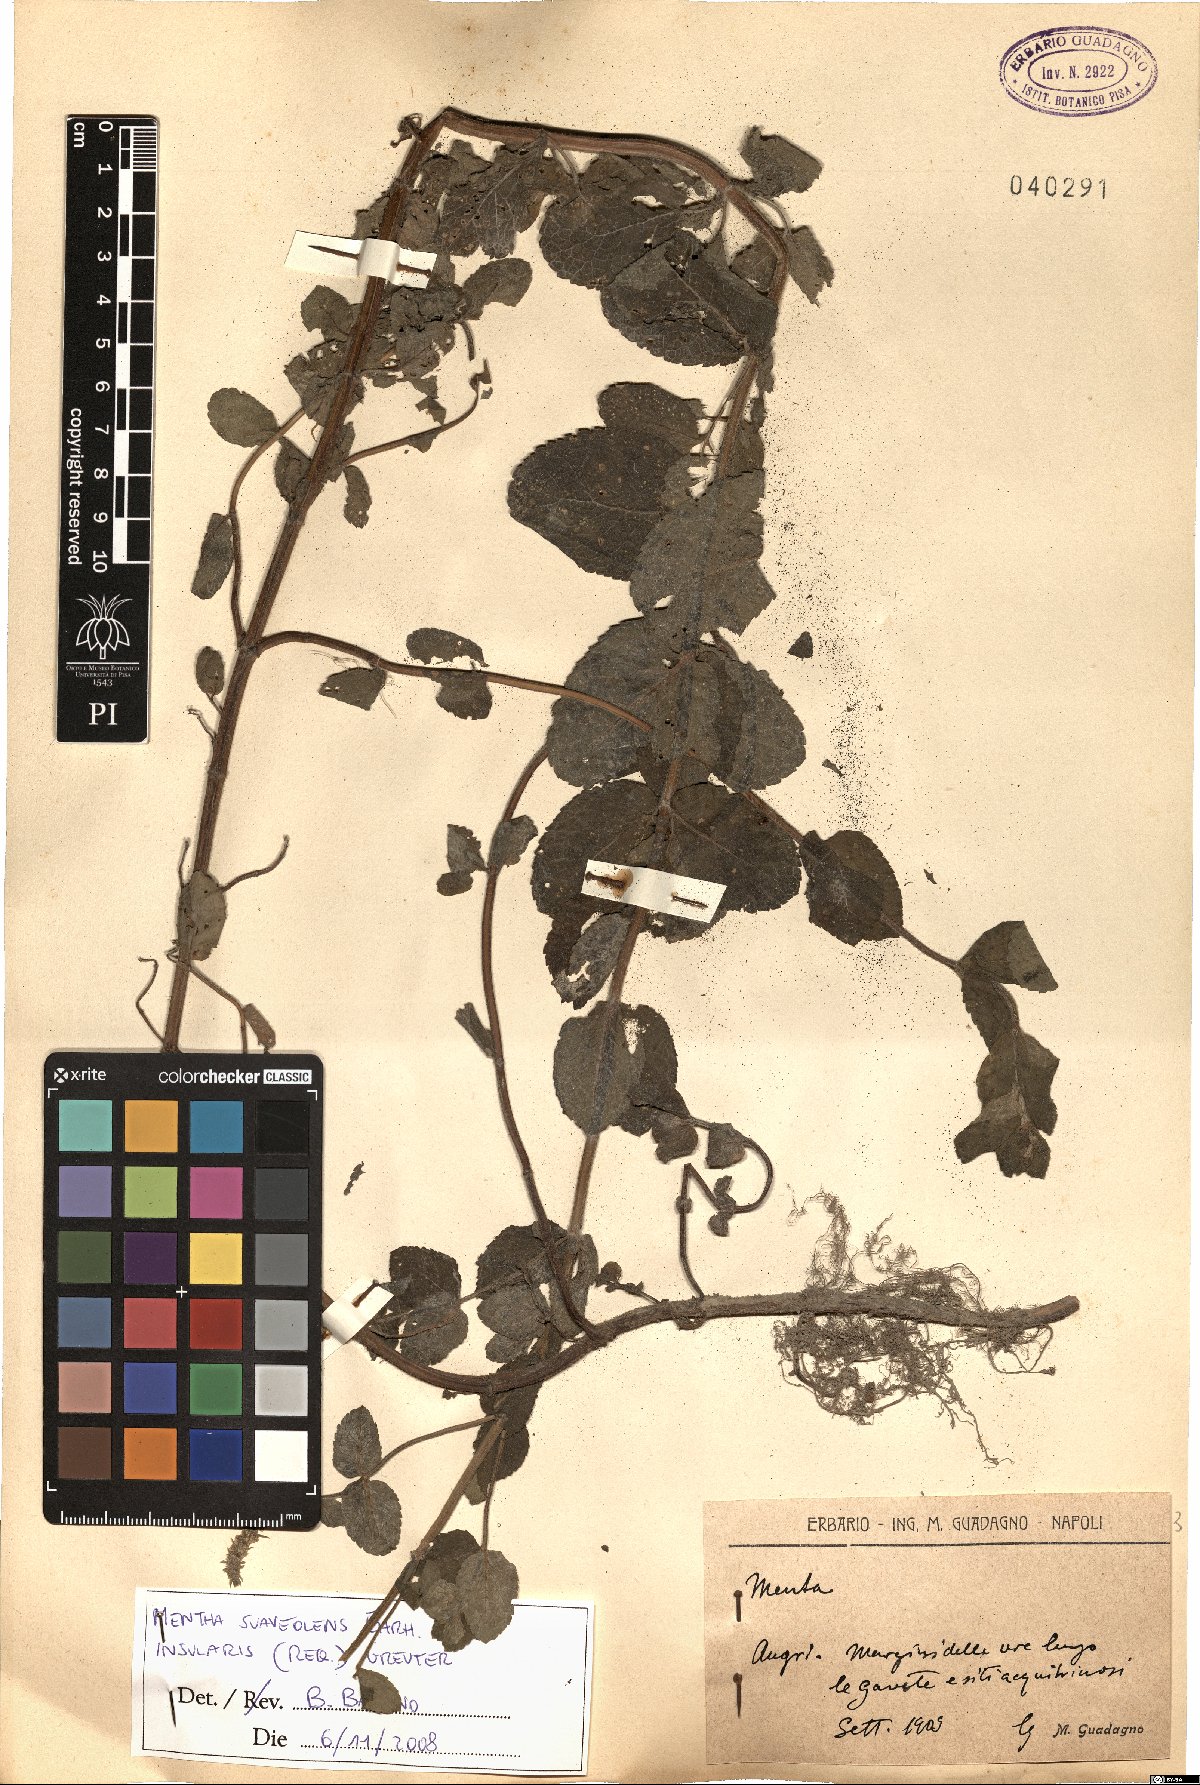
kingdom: Plantae
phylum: Tracheophyta
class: Magnoliopsida
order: Lamiales
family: Lamiaceae
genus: Mentha
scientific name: Mentha suaveolens
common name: Apple mint
